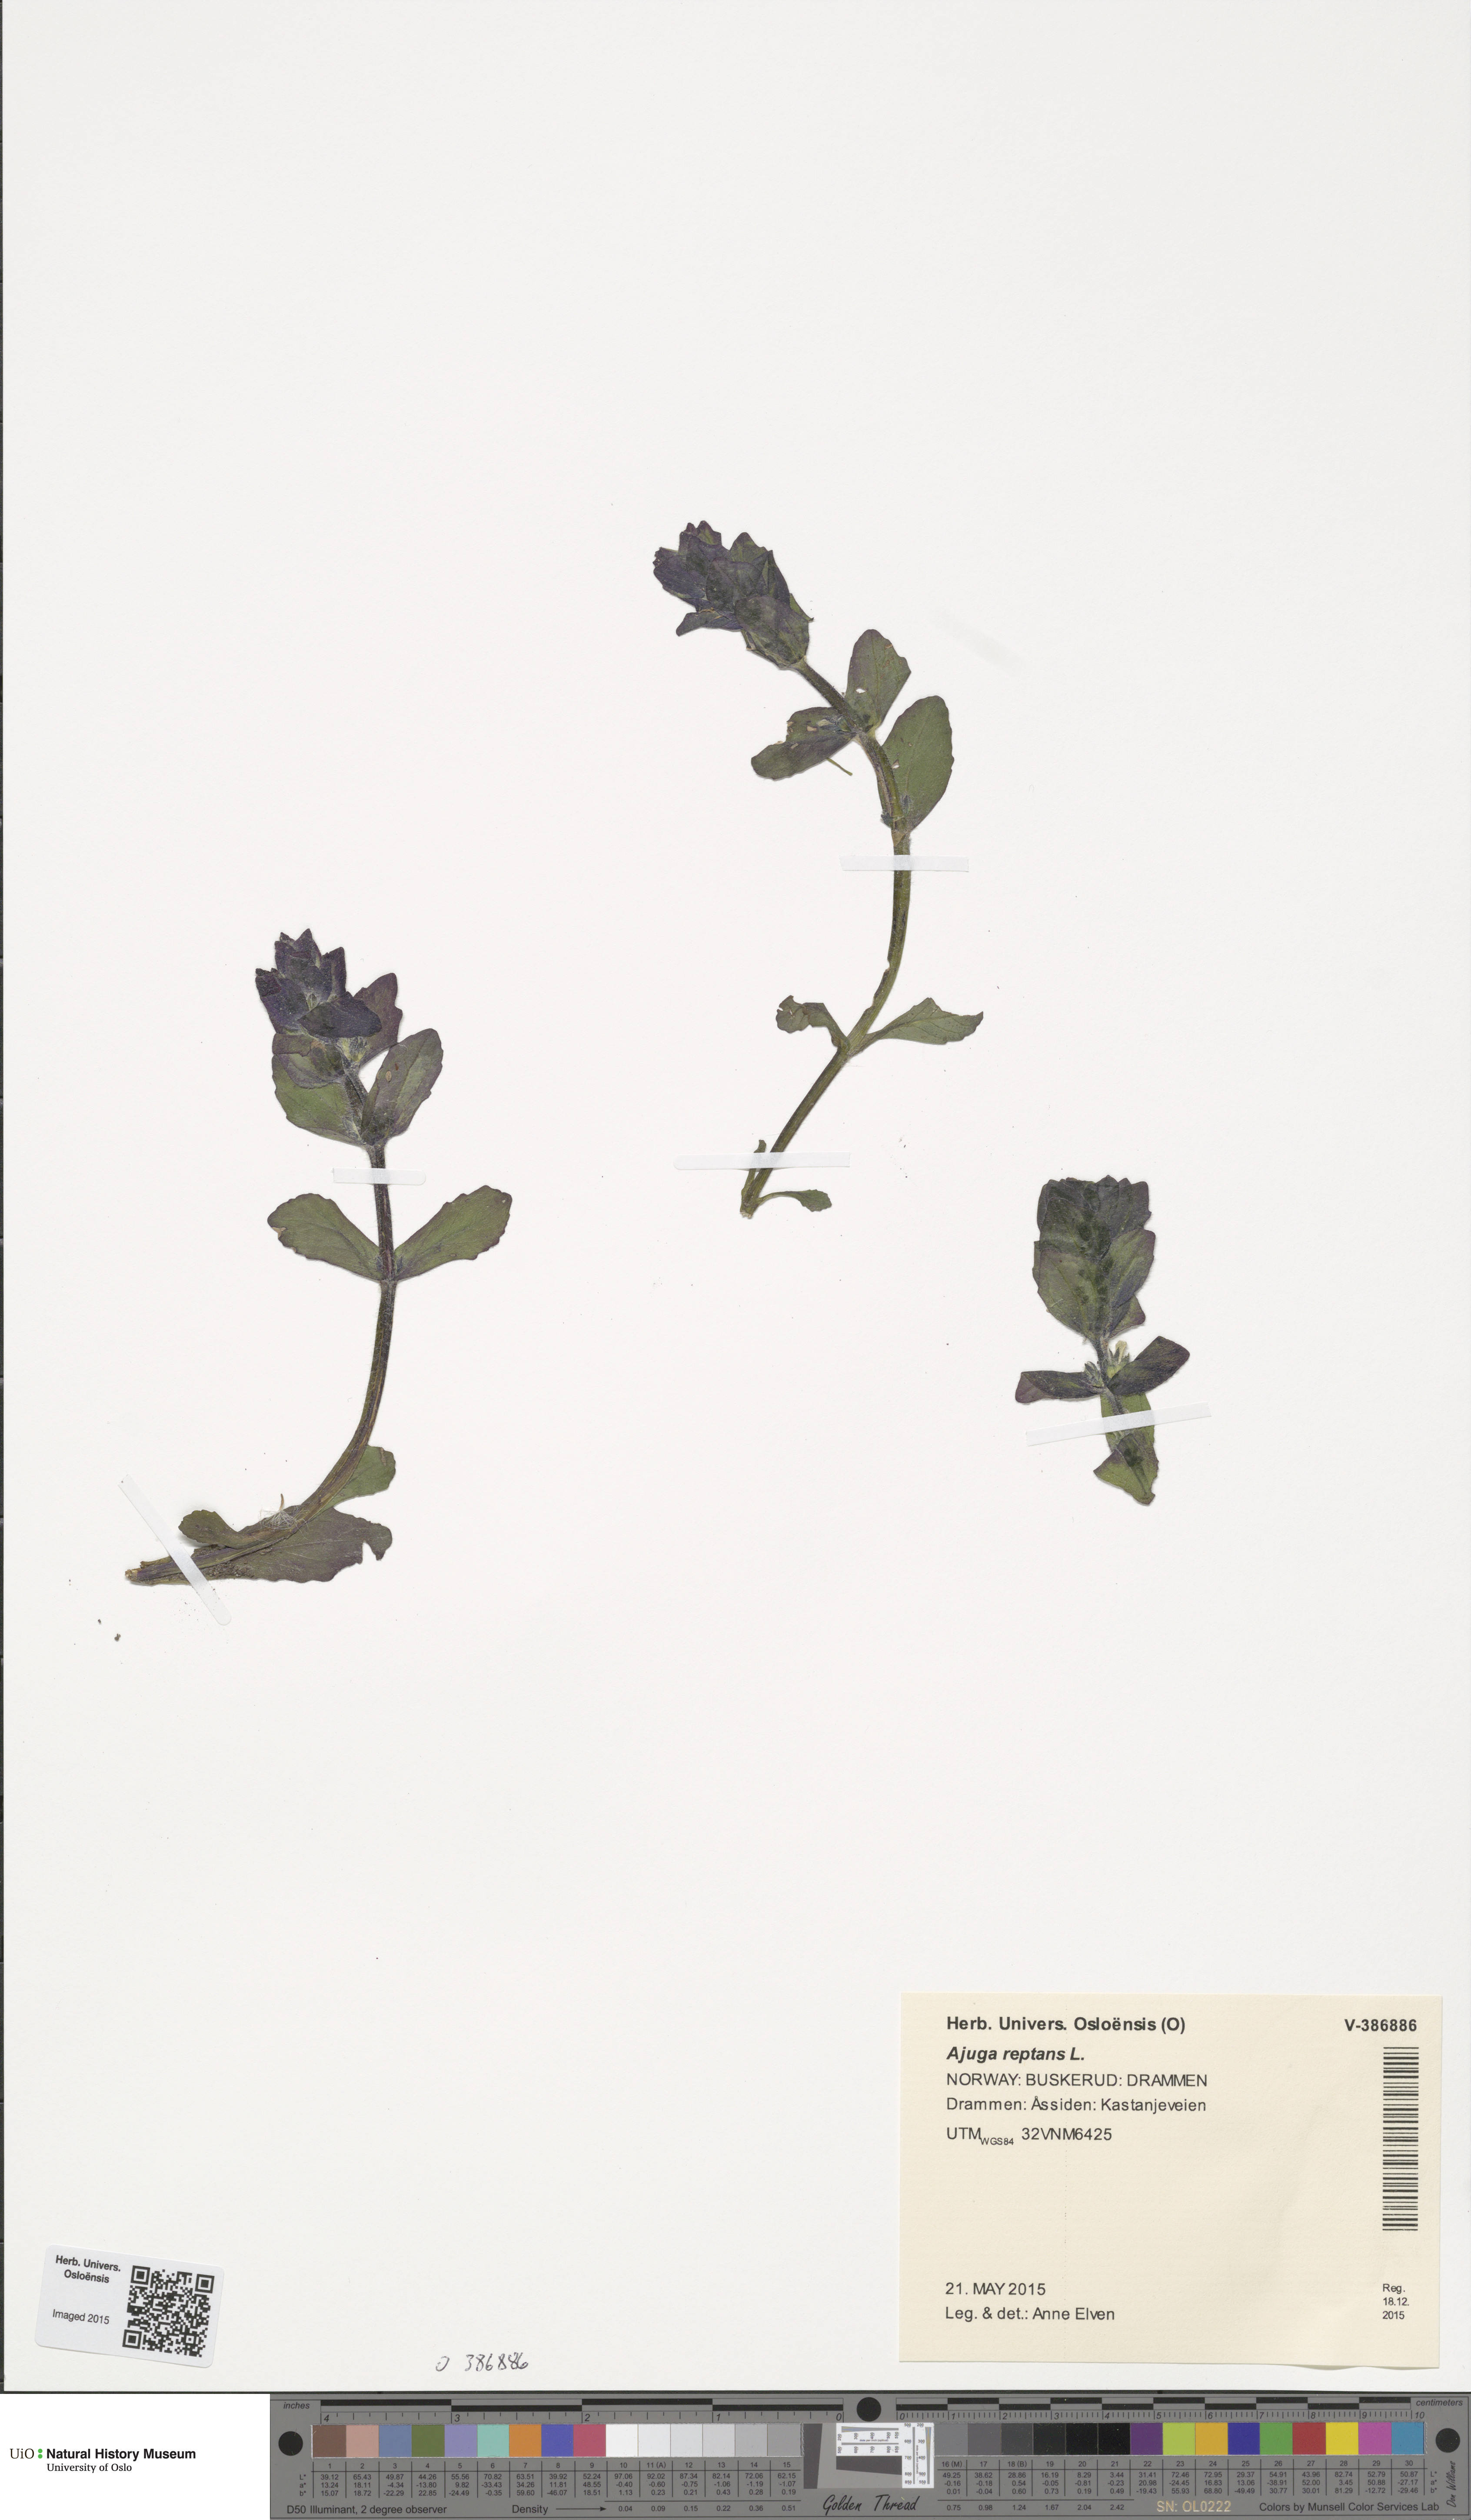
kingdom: Plantae
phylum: Tracheophyta
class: Magnoliopsida
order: Lamiales
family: Lamiaceae
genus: Ajuga
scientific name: Ajuga reptans
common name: Bugle
